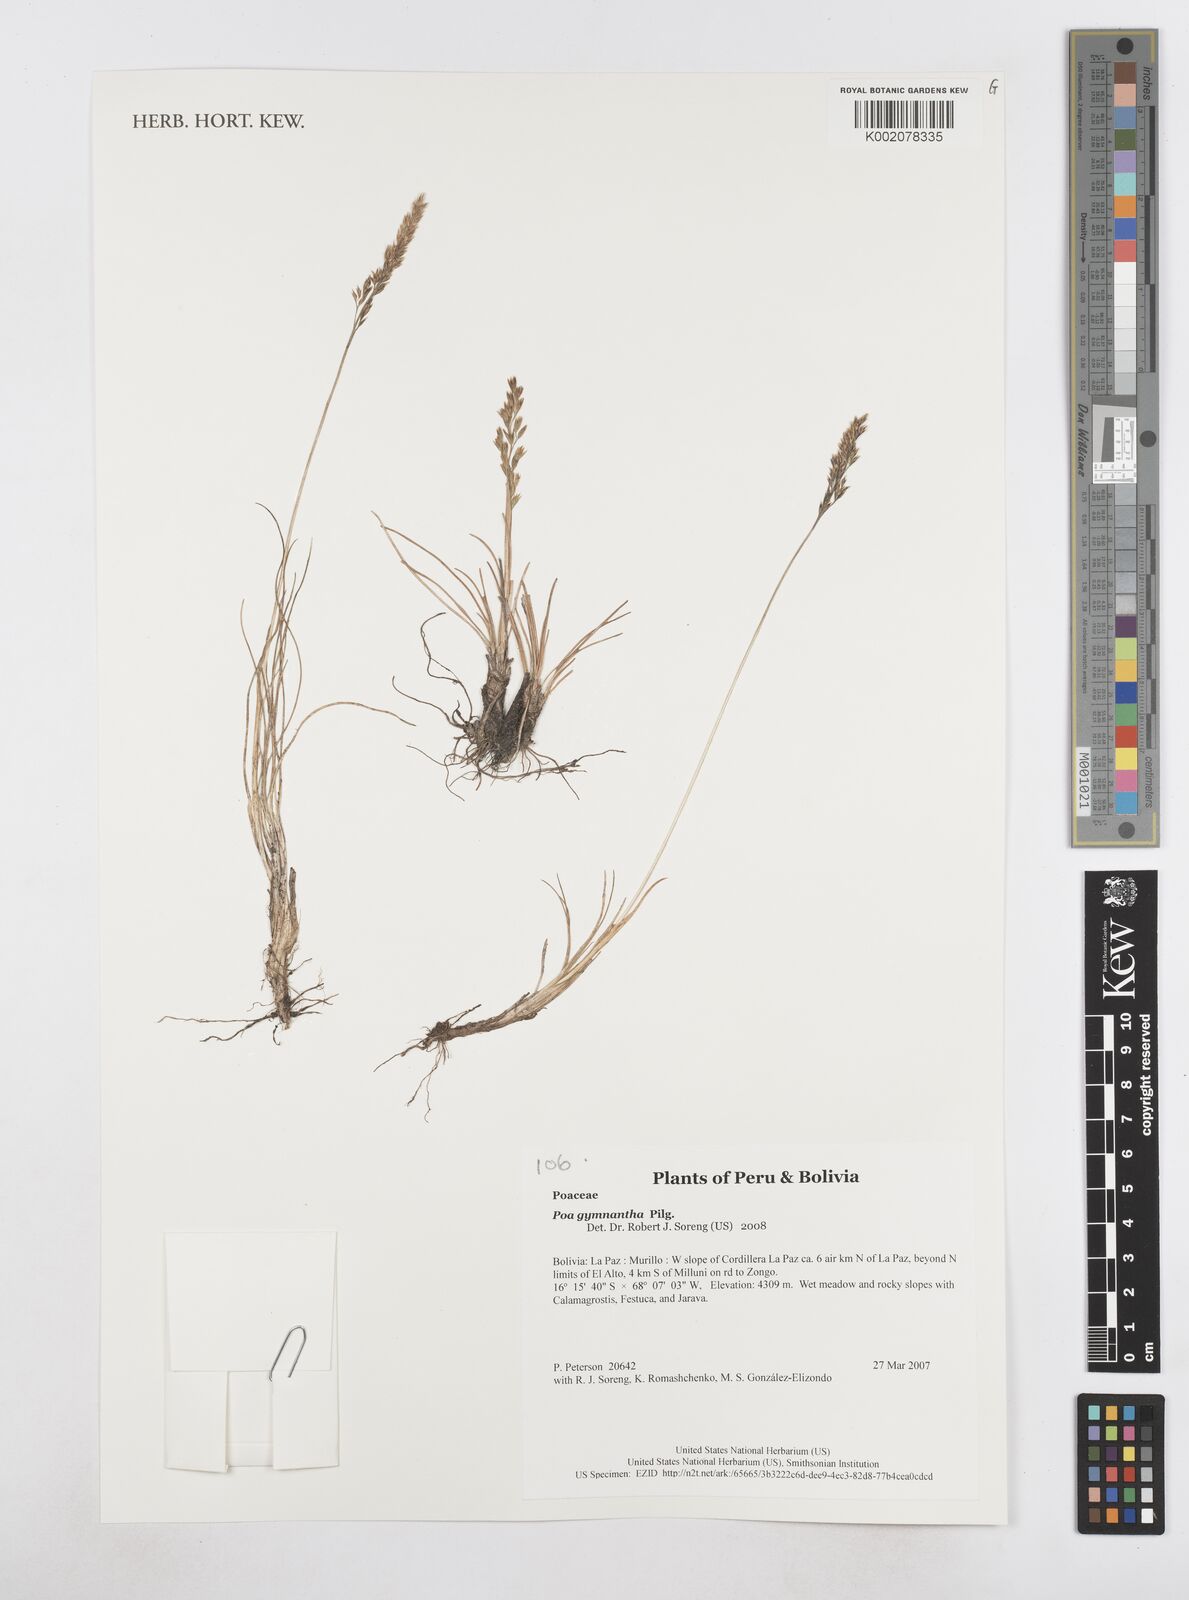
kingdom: Plantae
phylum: Tracheophyta
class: Liliopsida
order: Poales
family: Poaceae
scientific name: Poaceae
